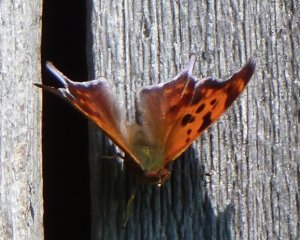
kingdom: Animalia
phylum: Arthropoda
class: Insecta
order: Lepidoptera
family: Nymphalidae
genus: Polygonia
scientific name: Polygonia interrogationis
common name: Question Mark
